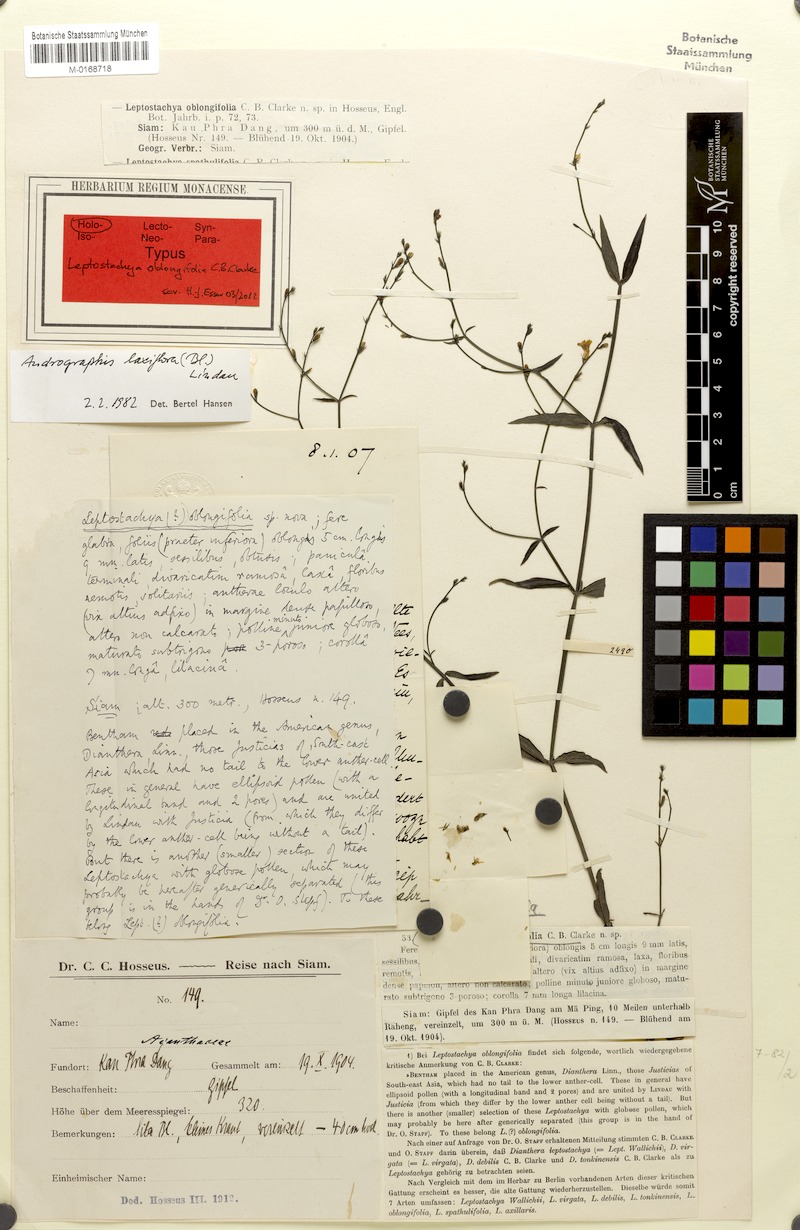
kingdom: Plantae
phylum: Tracheophyta
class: Magnoliopsida
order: Lamiales
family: Acanthaceae
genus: Haplanthus
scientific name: Haplanthus laxiflorus
